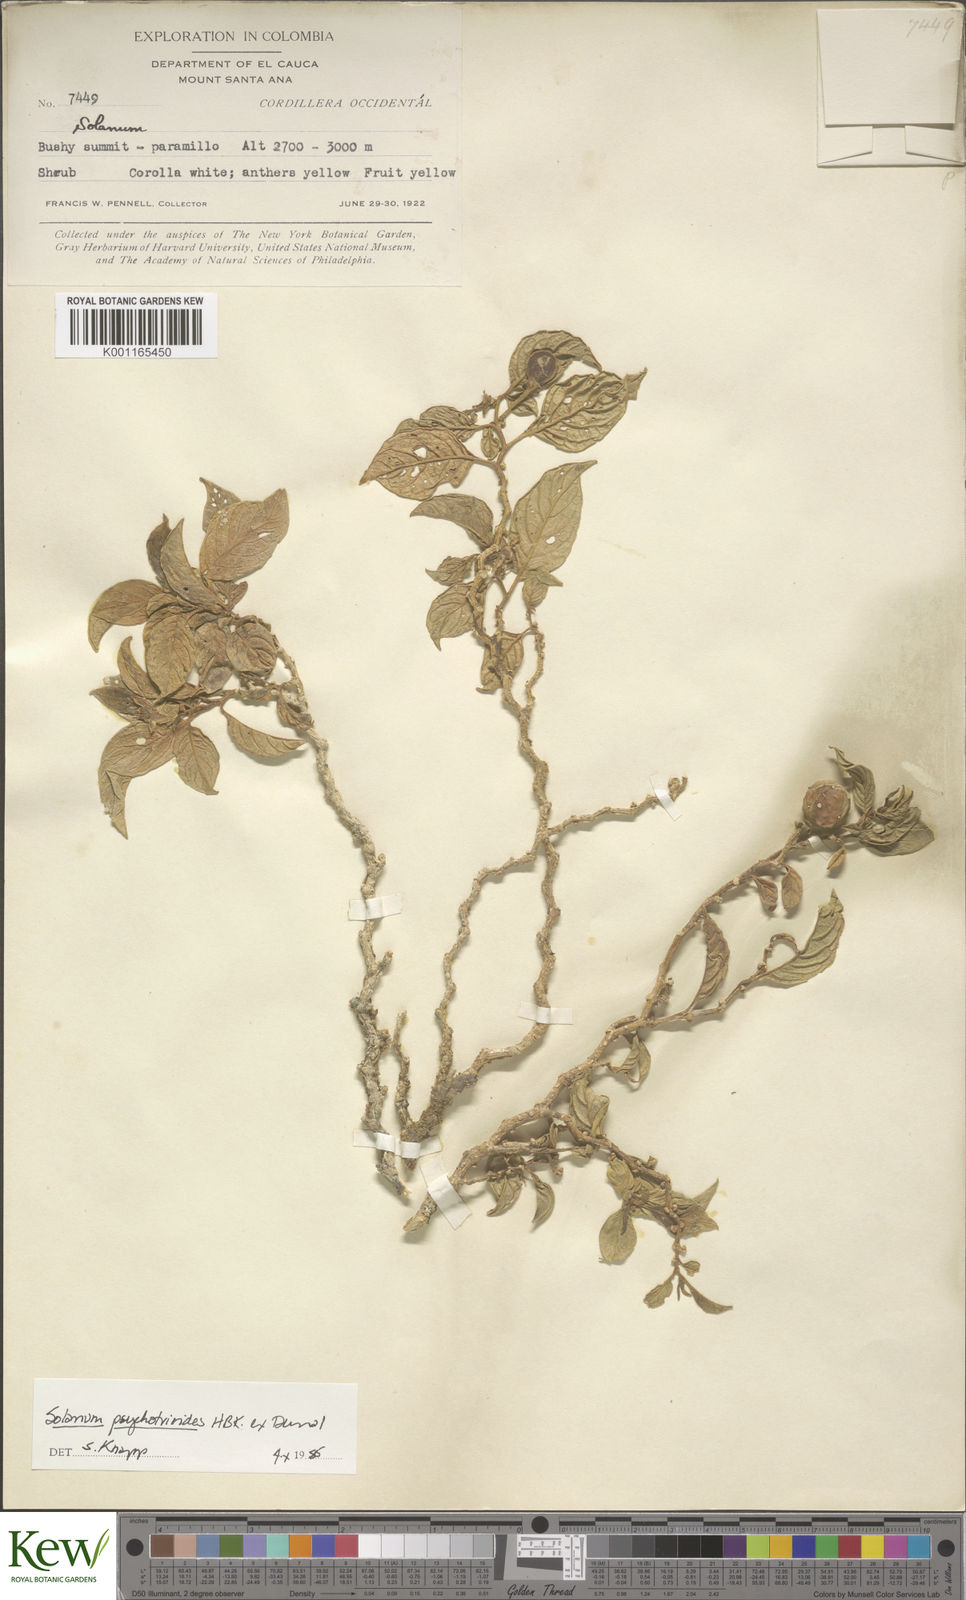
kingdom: Plantae
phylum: Tracheophyta
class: Magnoliopsida
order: Solanales
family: Solanaceae
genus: Solanum
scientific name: Solanum psychotrioides
